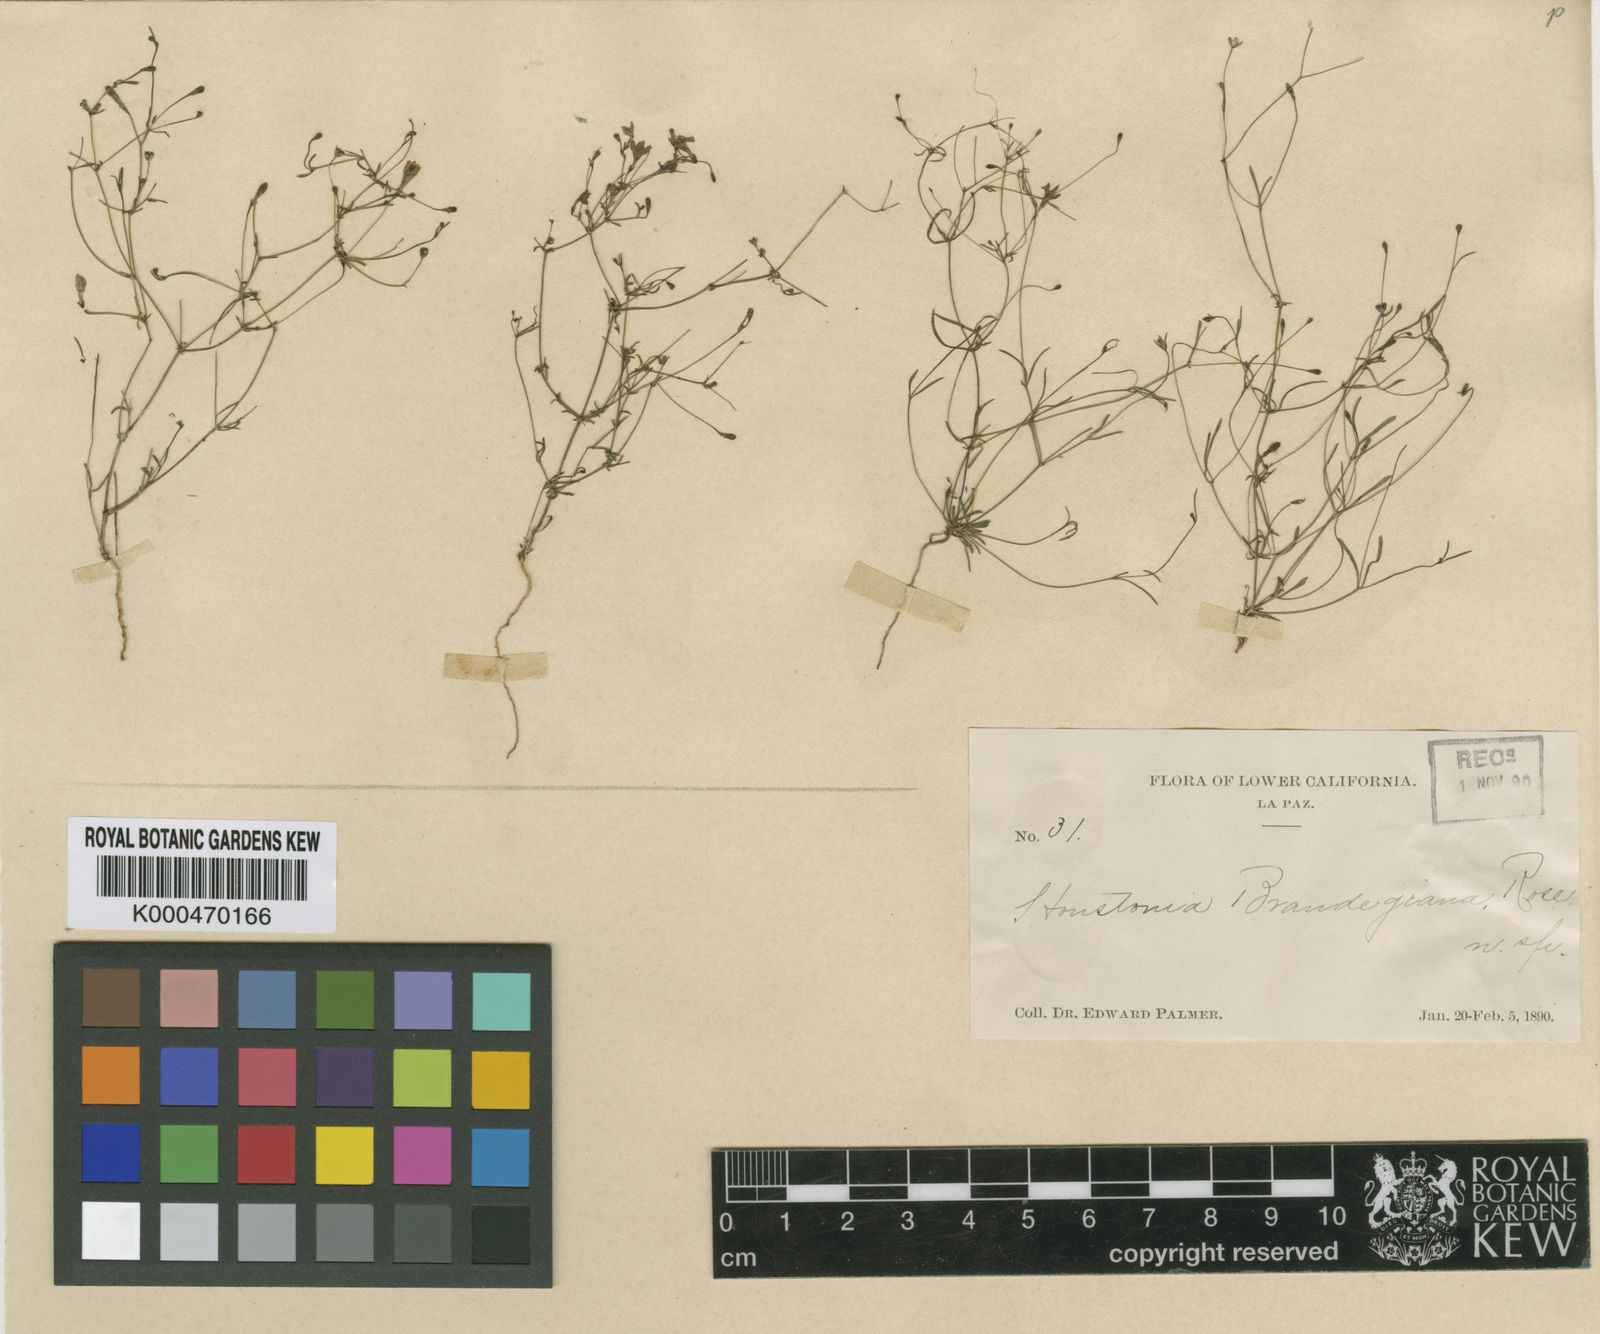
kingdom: Plantae
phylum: Tracheophyta
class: Magnoliopsida
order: Gentianales
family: Rubiaceae
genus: Stenotis
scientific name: Stenotis asperuloides
